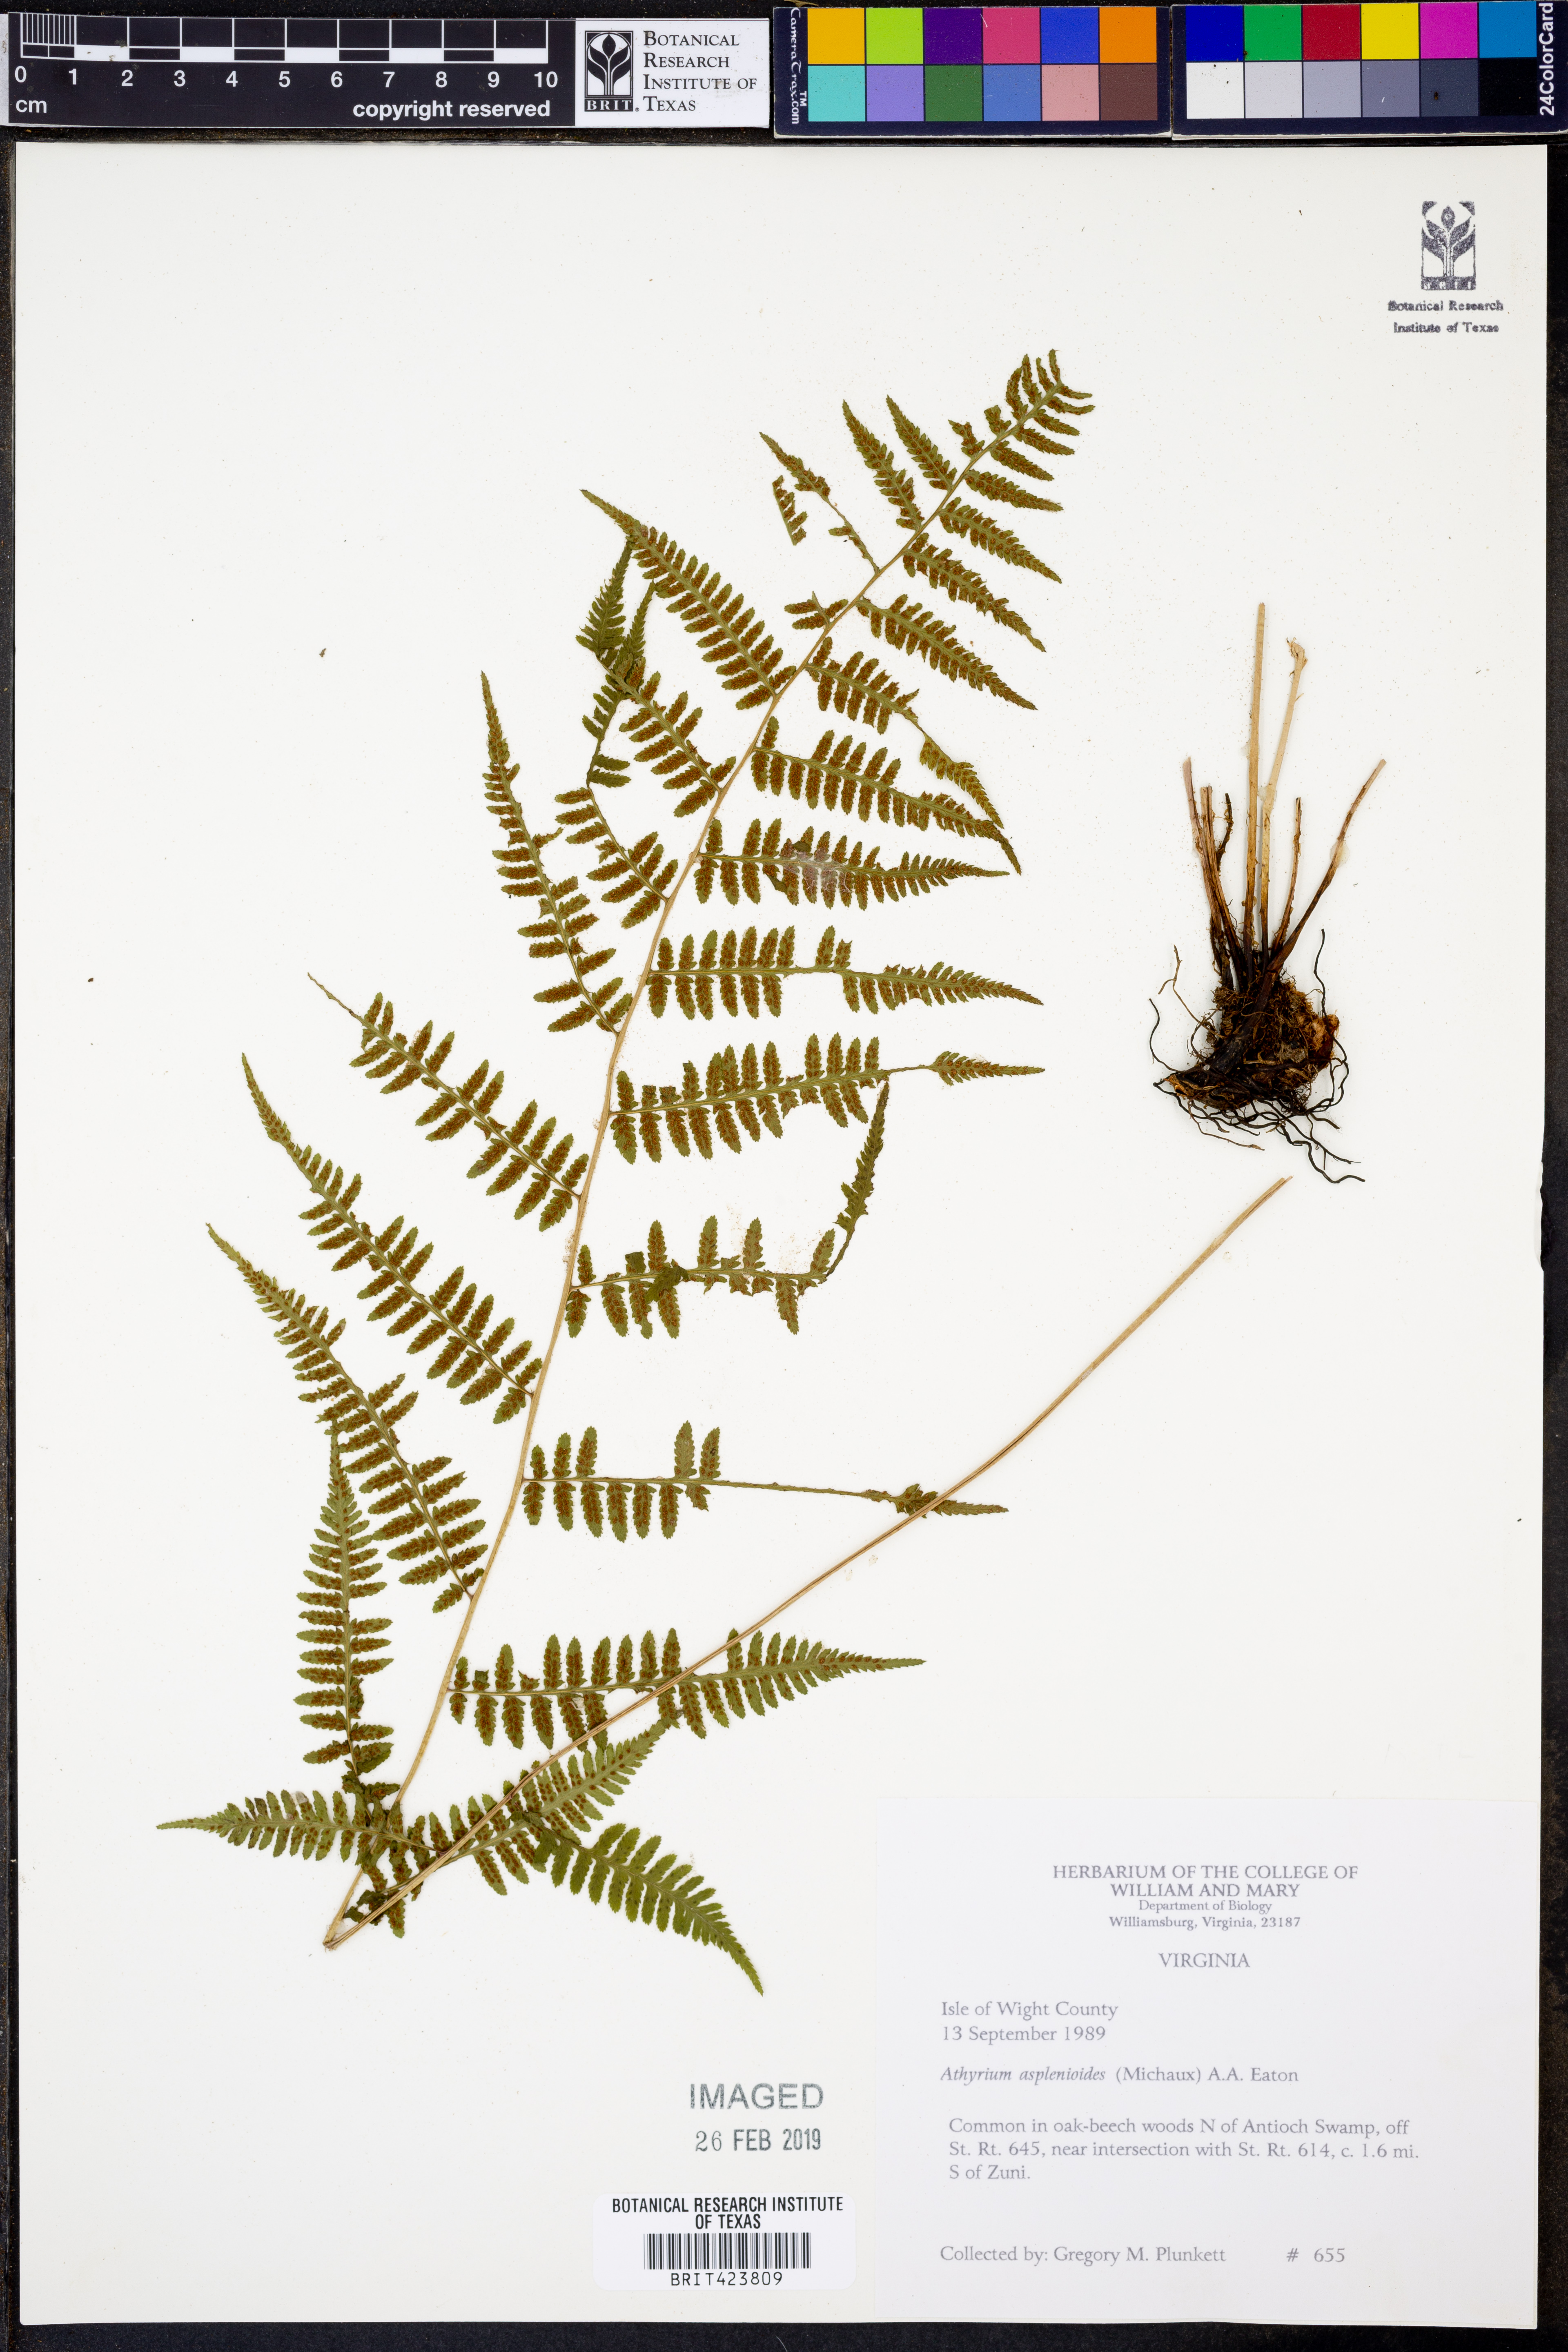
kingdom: Plantae
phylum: Tracheophyta
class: Polypodiopsida
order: Polypodiales
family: Athyriaceae
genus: Athyrium
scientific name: Athyrium asplenioides
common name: Southern lady fern
